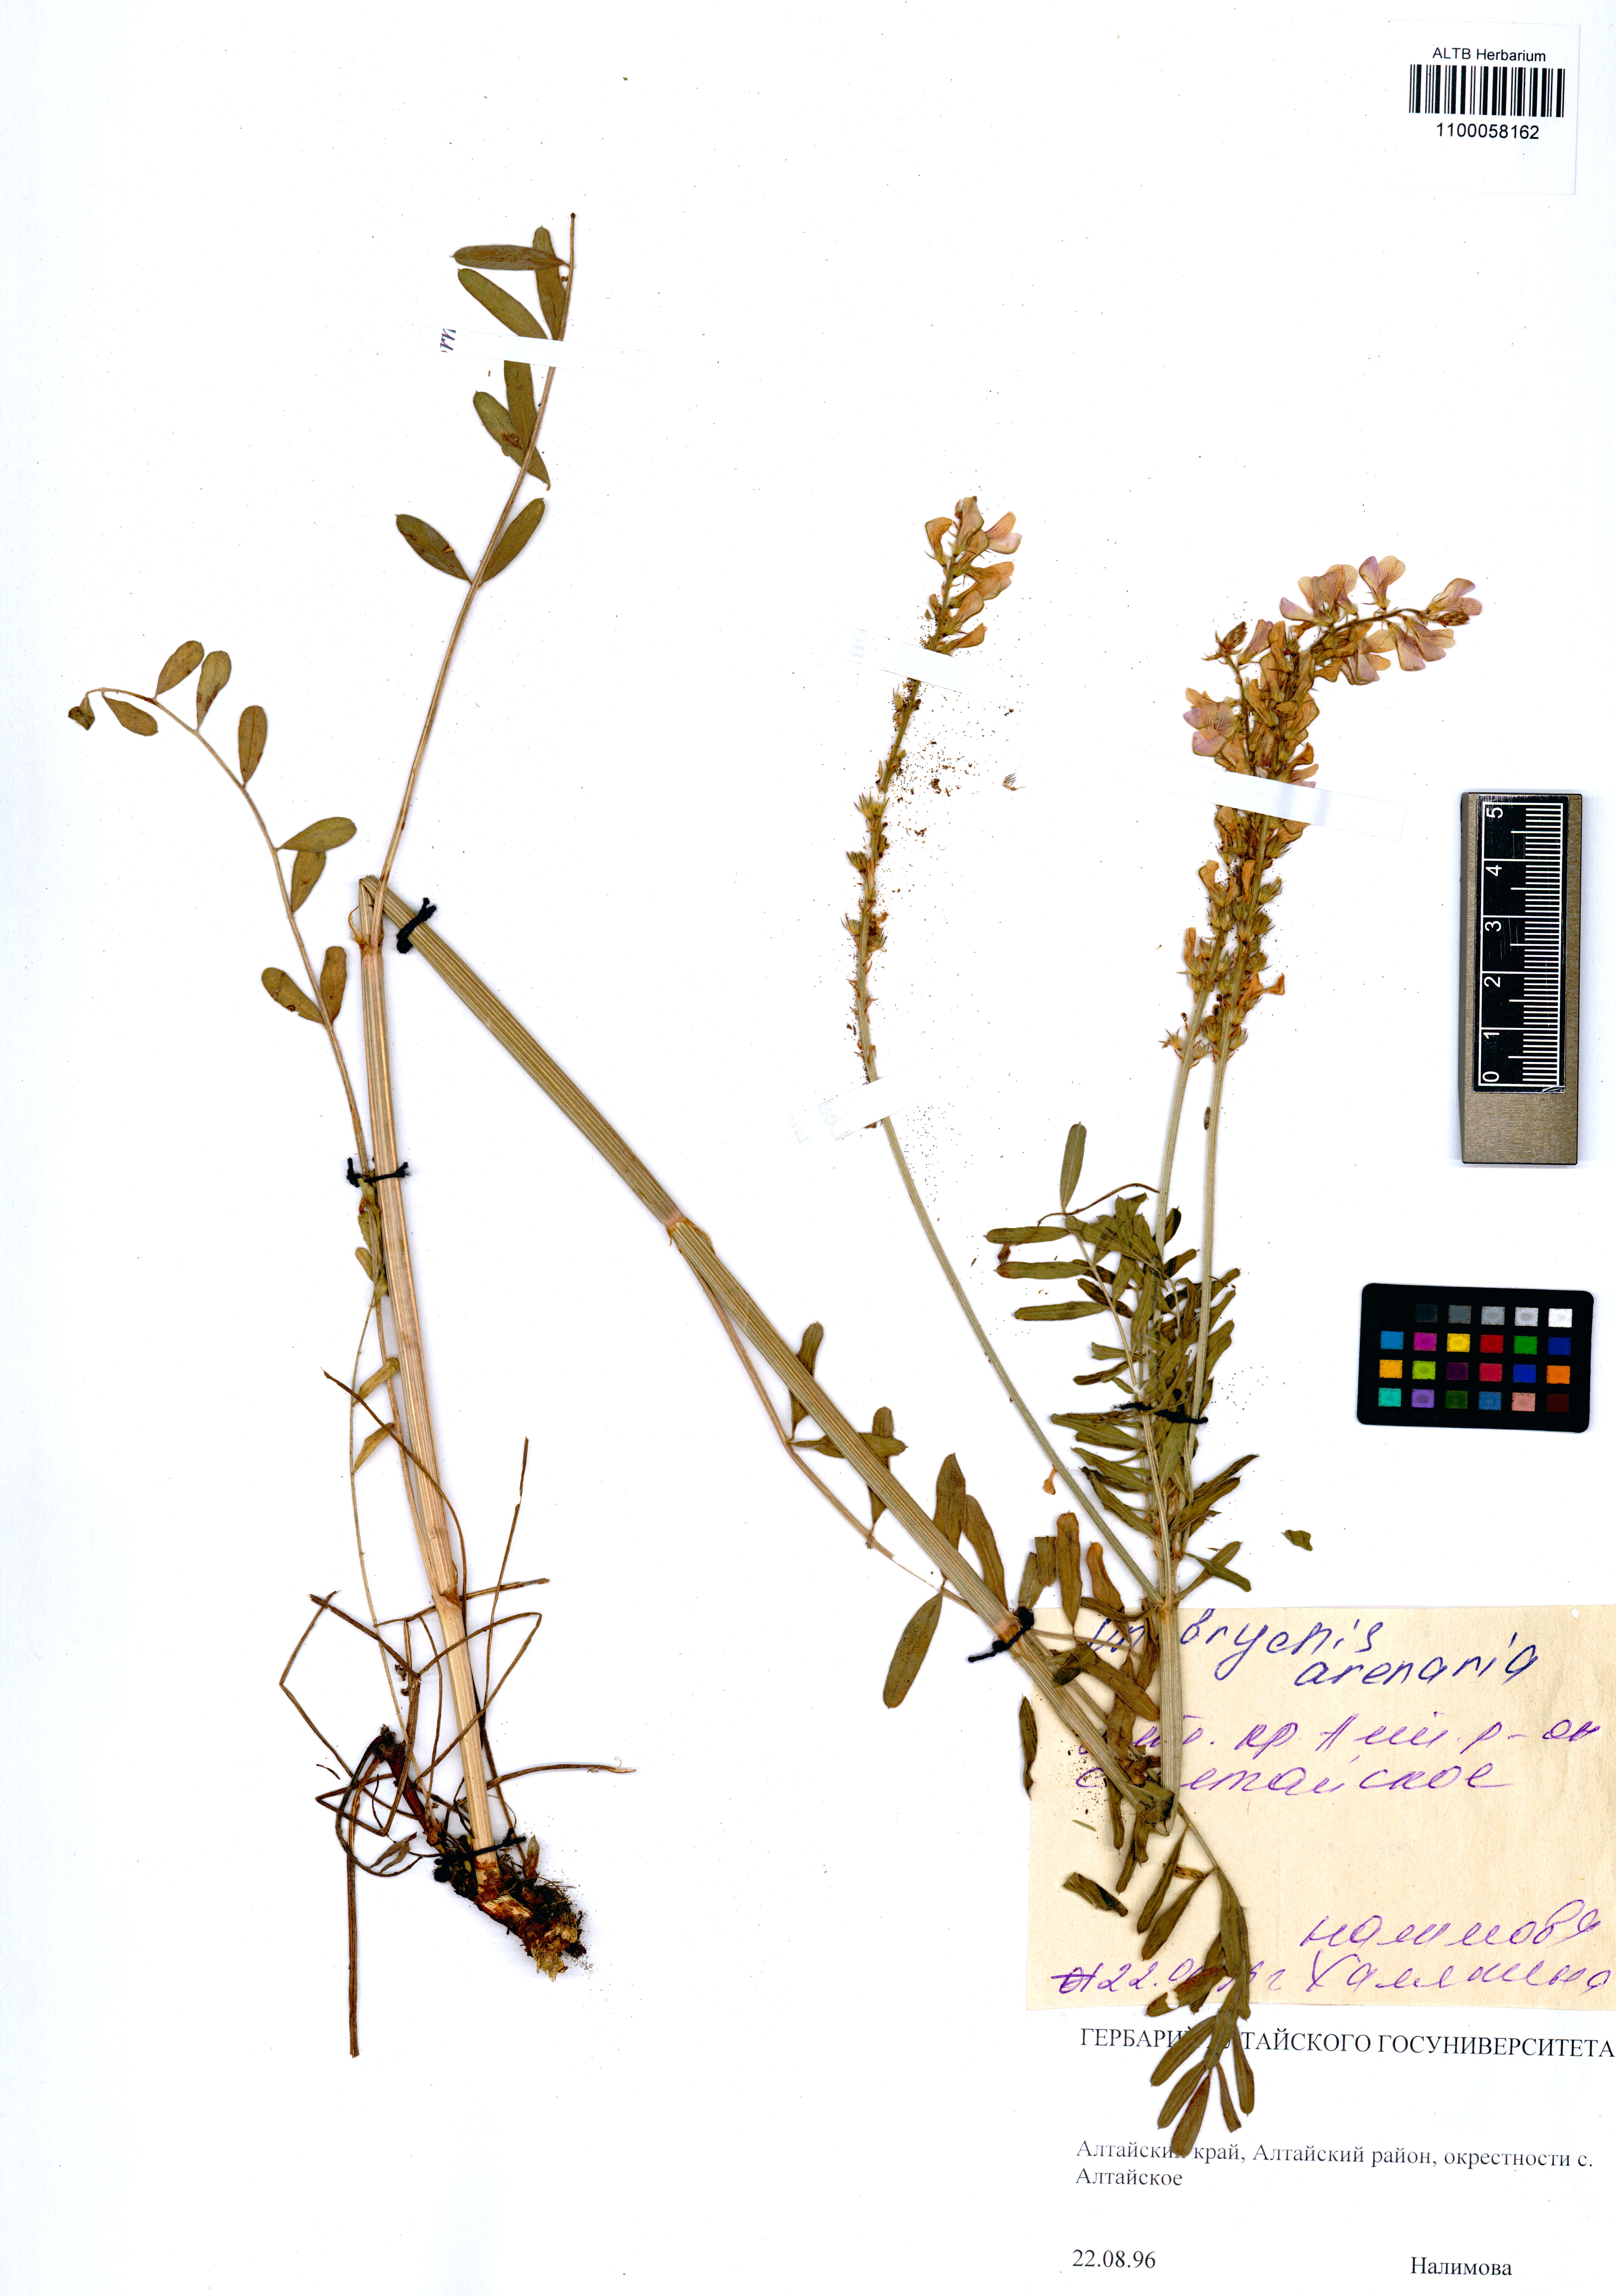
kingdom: Plantae
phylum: Tracheophyta
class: Magnoliopsida
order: Fabales
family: Fabaceae
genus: Onobrychis
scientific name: Onobrychis arenaria
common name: Sand esparcet
